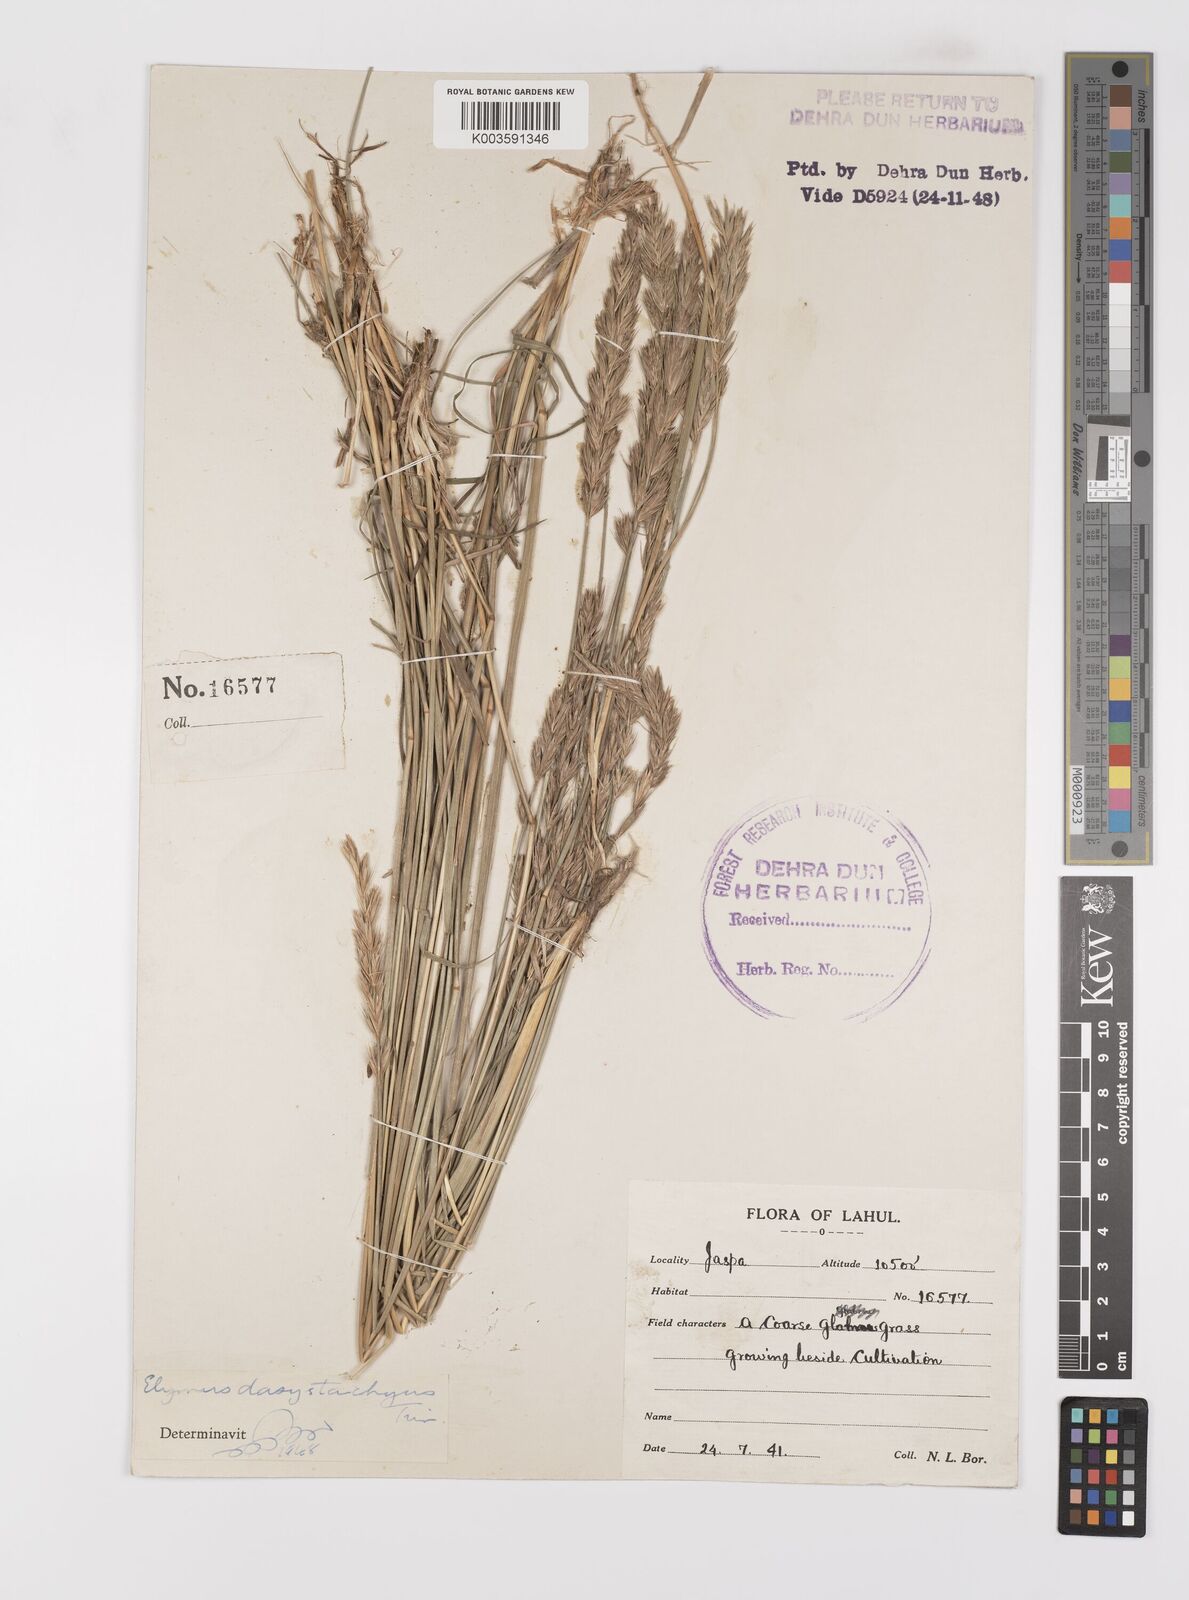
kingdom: Plantae
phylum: Tracheophyta
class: Liliopsida
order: Poales
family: Poaceae
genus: Leymus
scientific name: Leymus secalinus
